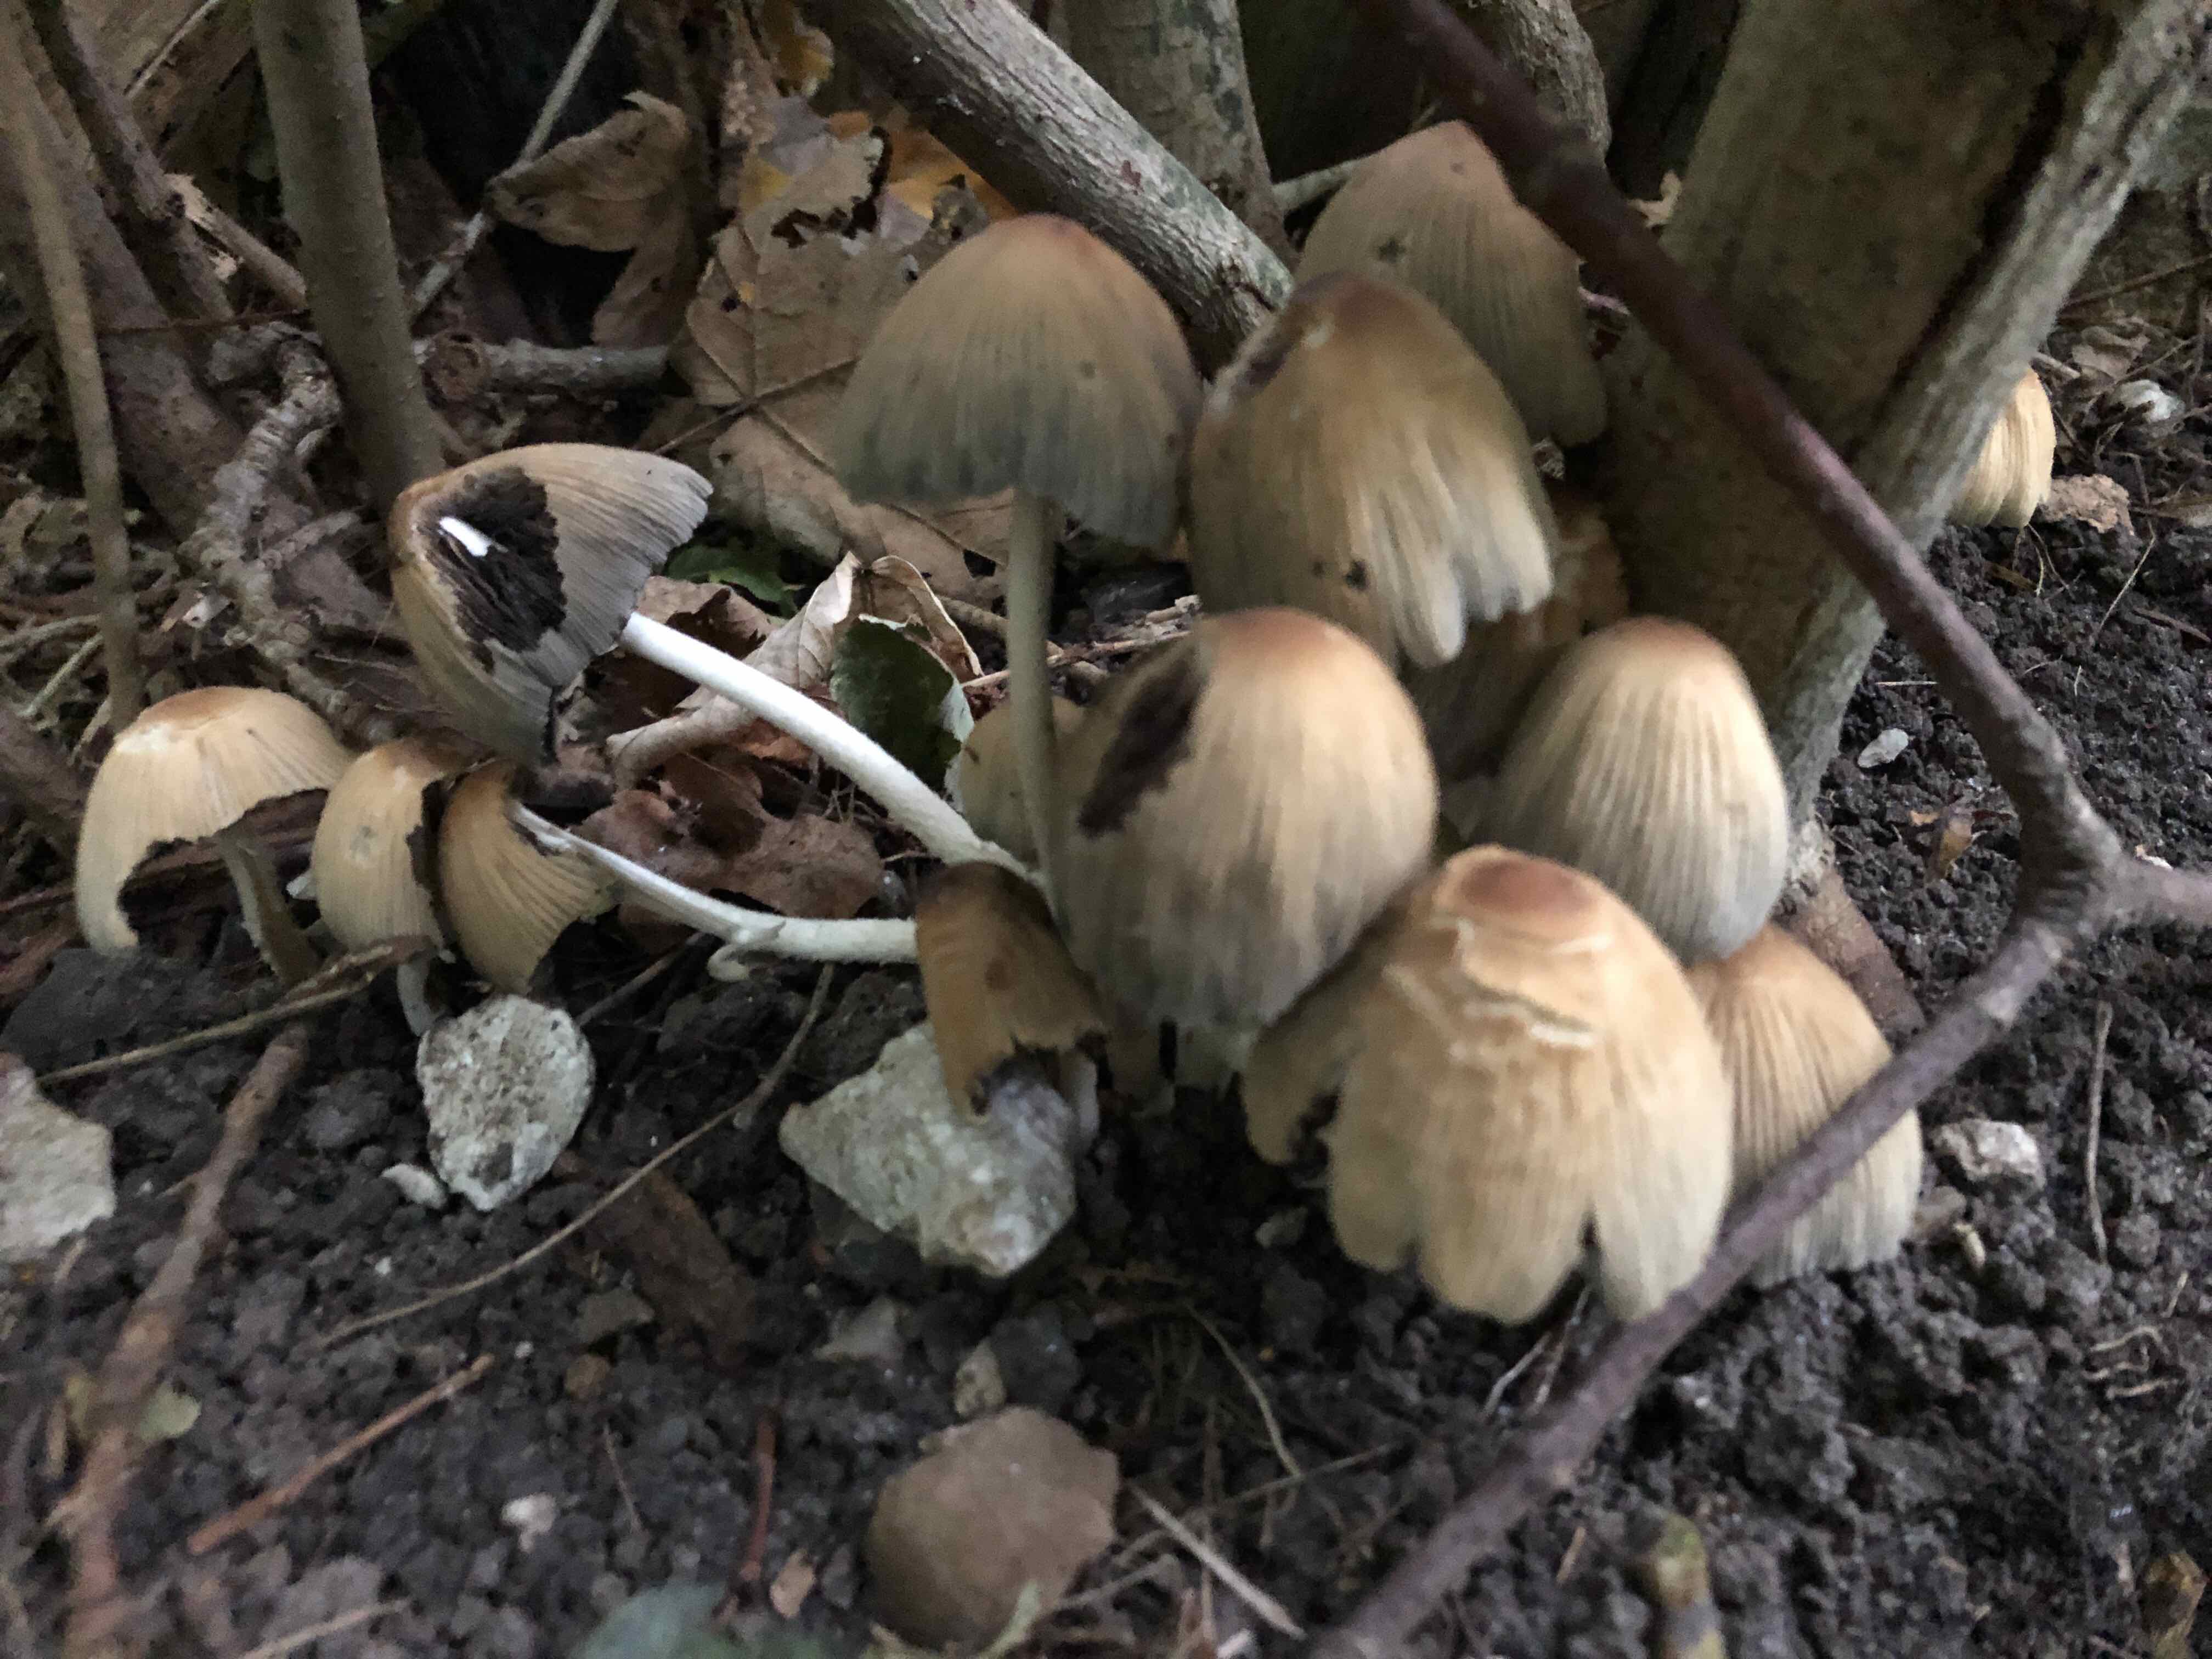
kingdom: Fungi
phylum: Basidiomycota
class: Agaricomycetes
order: Agaricales
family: Psathyrellaceae
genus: Coprinellus
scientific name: Coprinellus micaceus
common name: glimmer-blækhat
